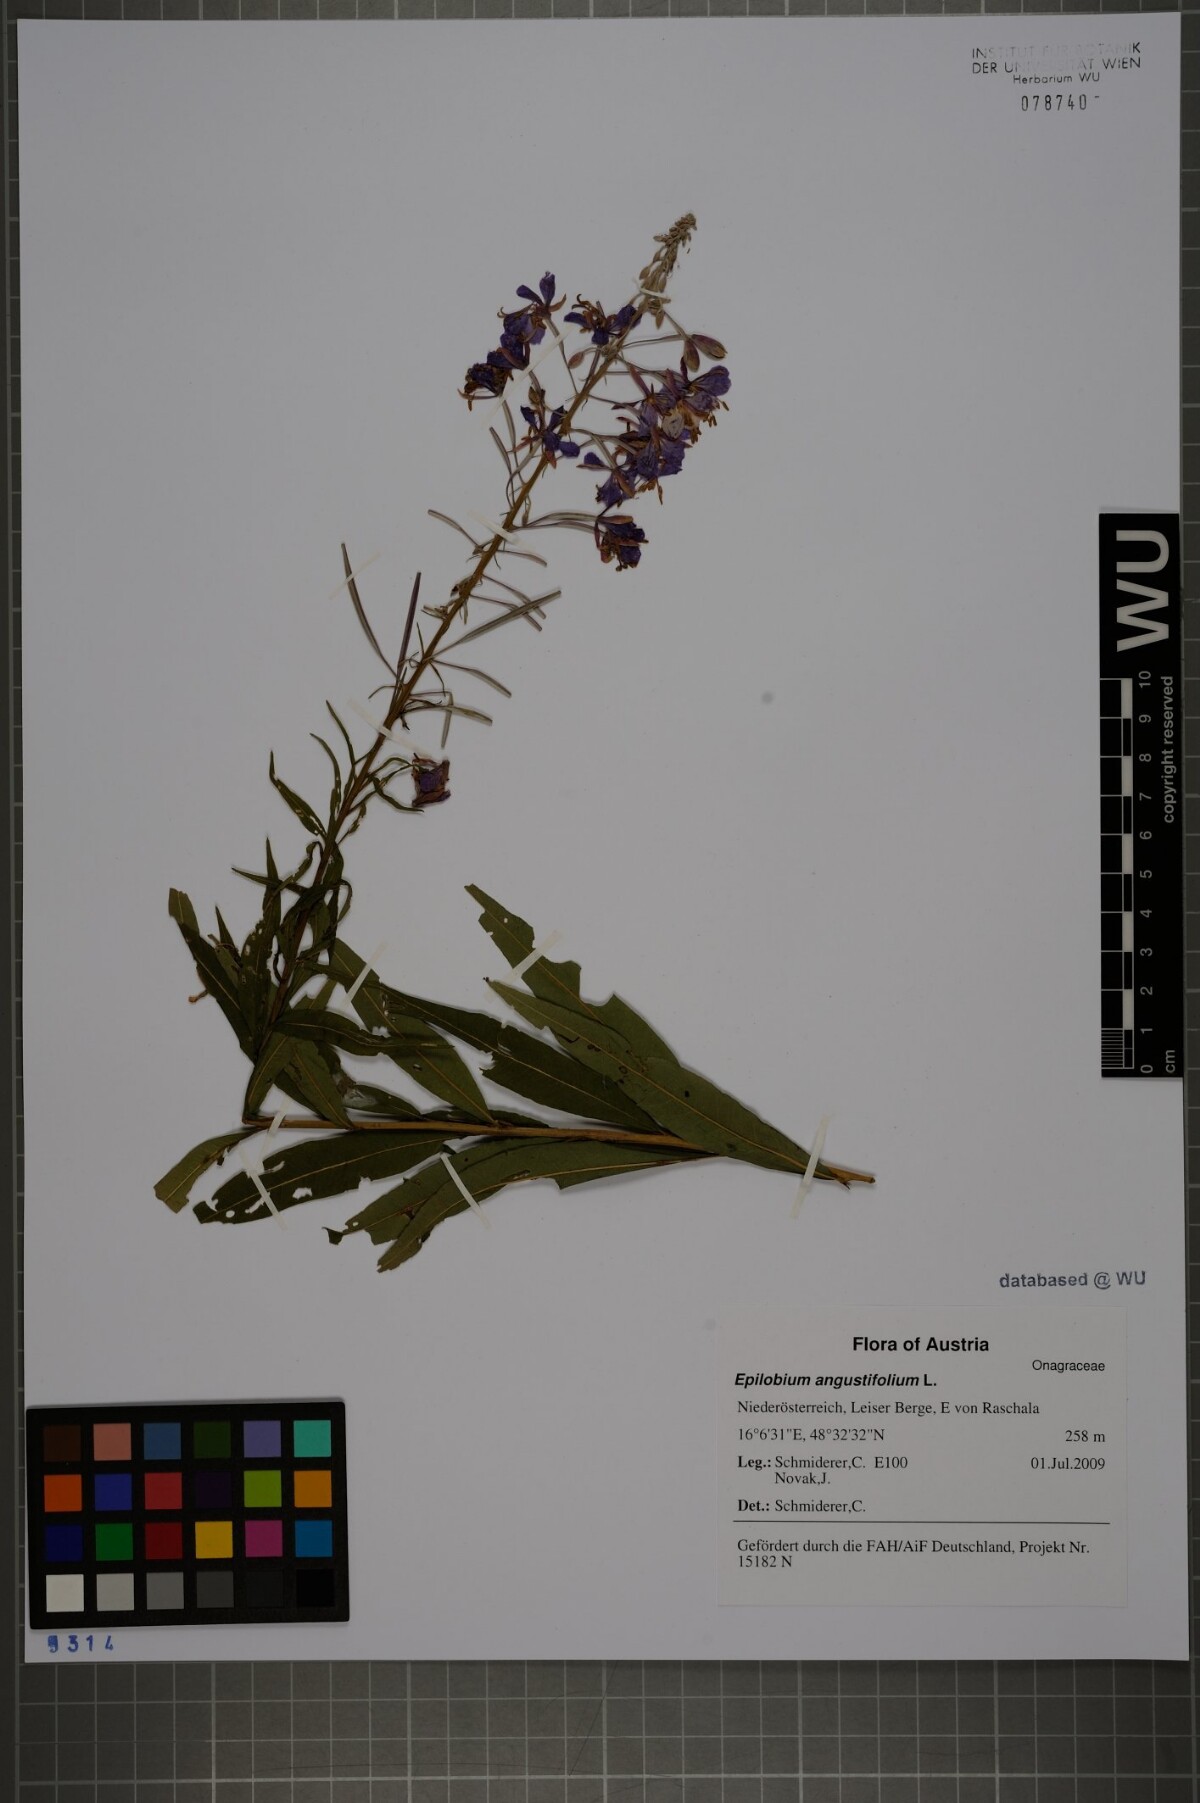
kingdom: Plantae
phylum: Tracheophyta
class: Magnoliopsida
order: Myrtales
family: Onagraceae
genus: Chamaenerion
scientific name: Chamaenerion angustifolium
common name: Fireweed
